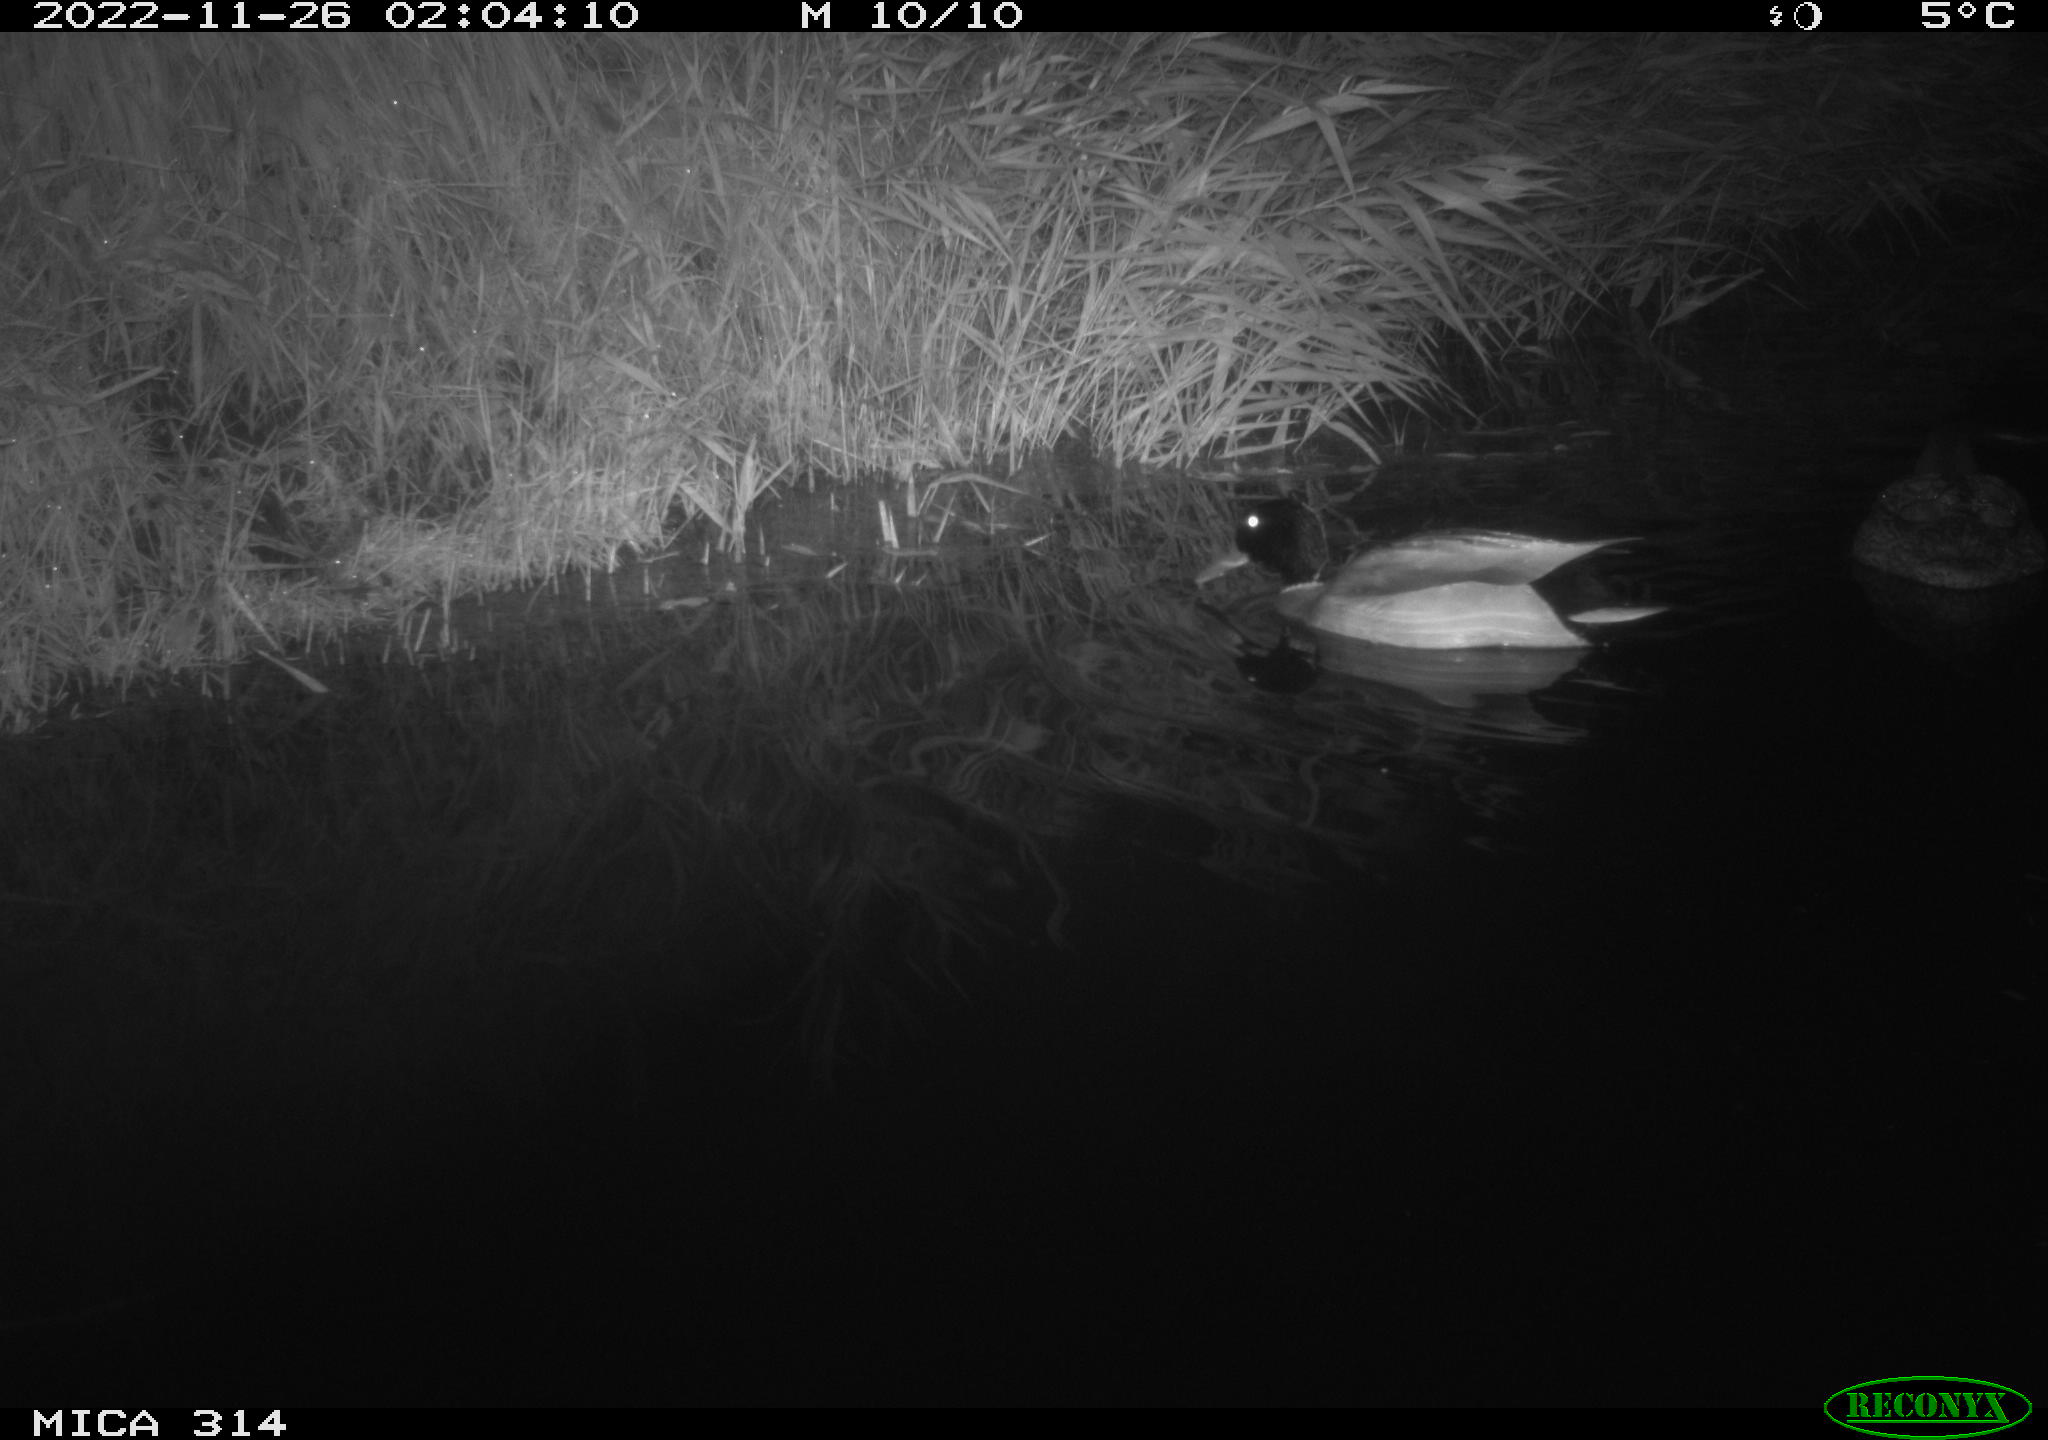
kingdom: Animalia
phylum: Chordata
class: Aves
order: Anseriformes
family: Anatidae
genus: Anas
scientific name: Anas
